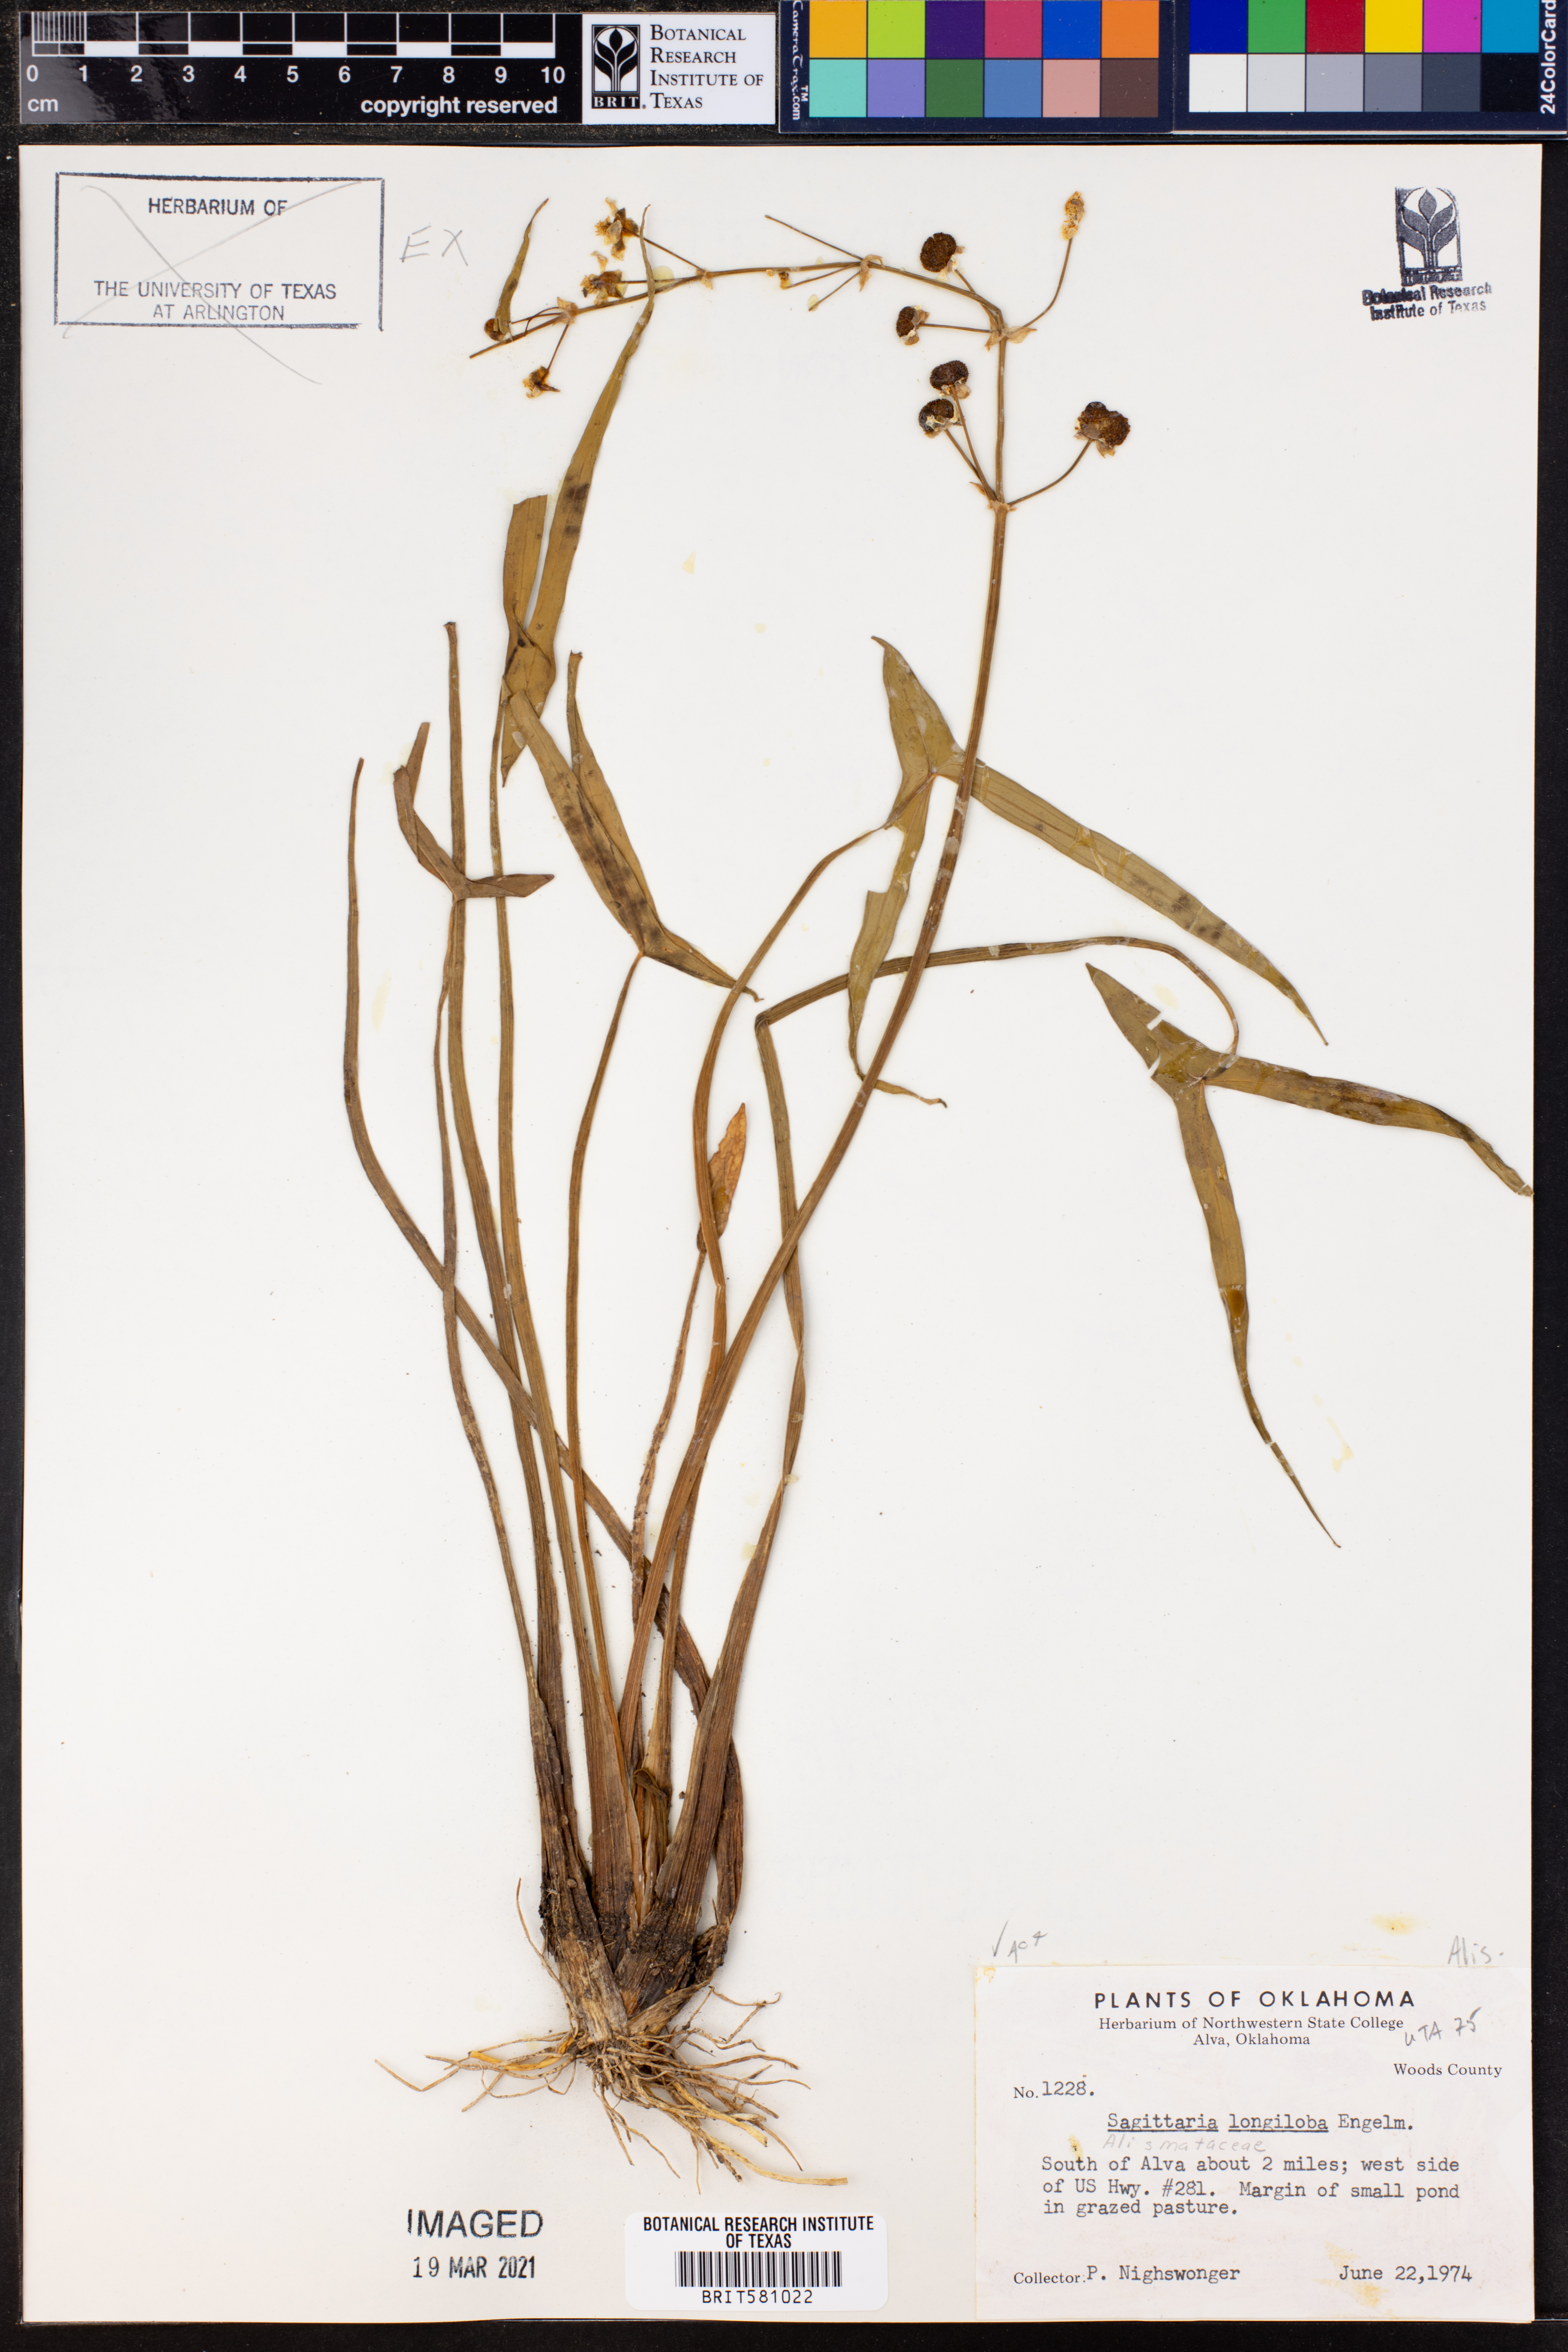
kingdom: Plantae
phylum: Tracheophyta
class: Liliopsida
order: Alismatales
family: Alismataceae
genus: Sagittaria
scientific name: Sagittaria longiloba
